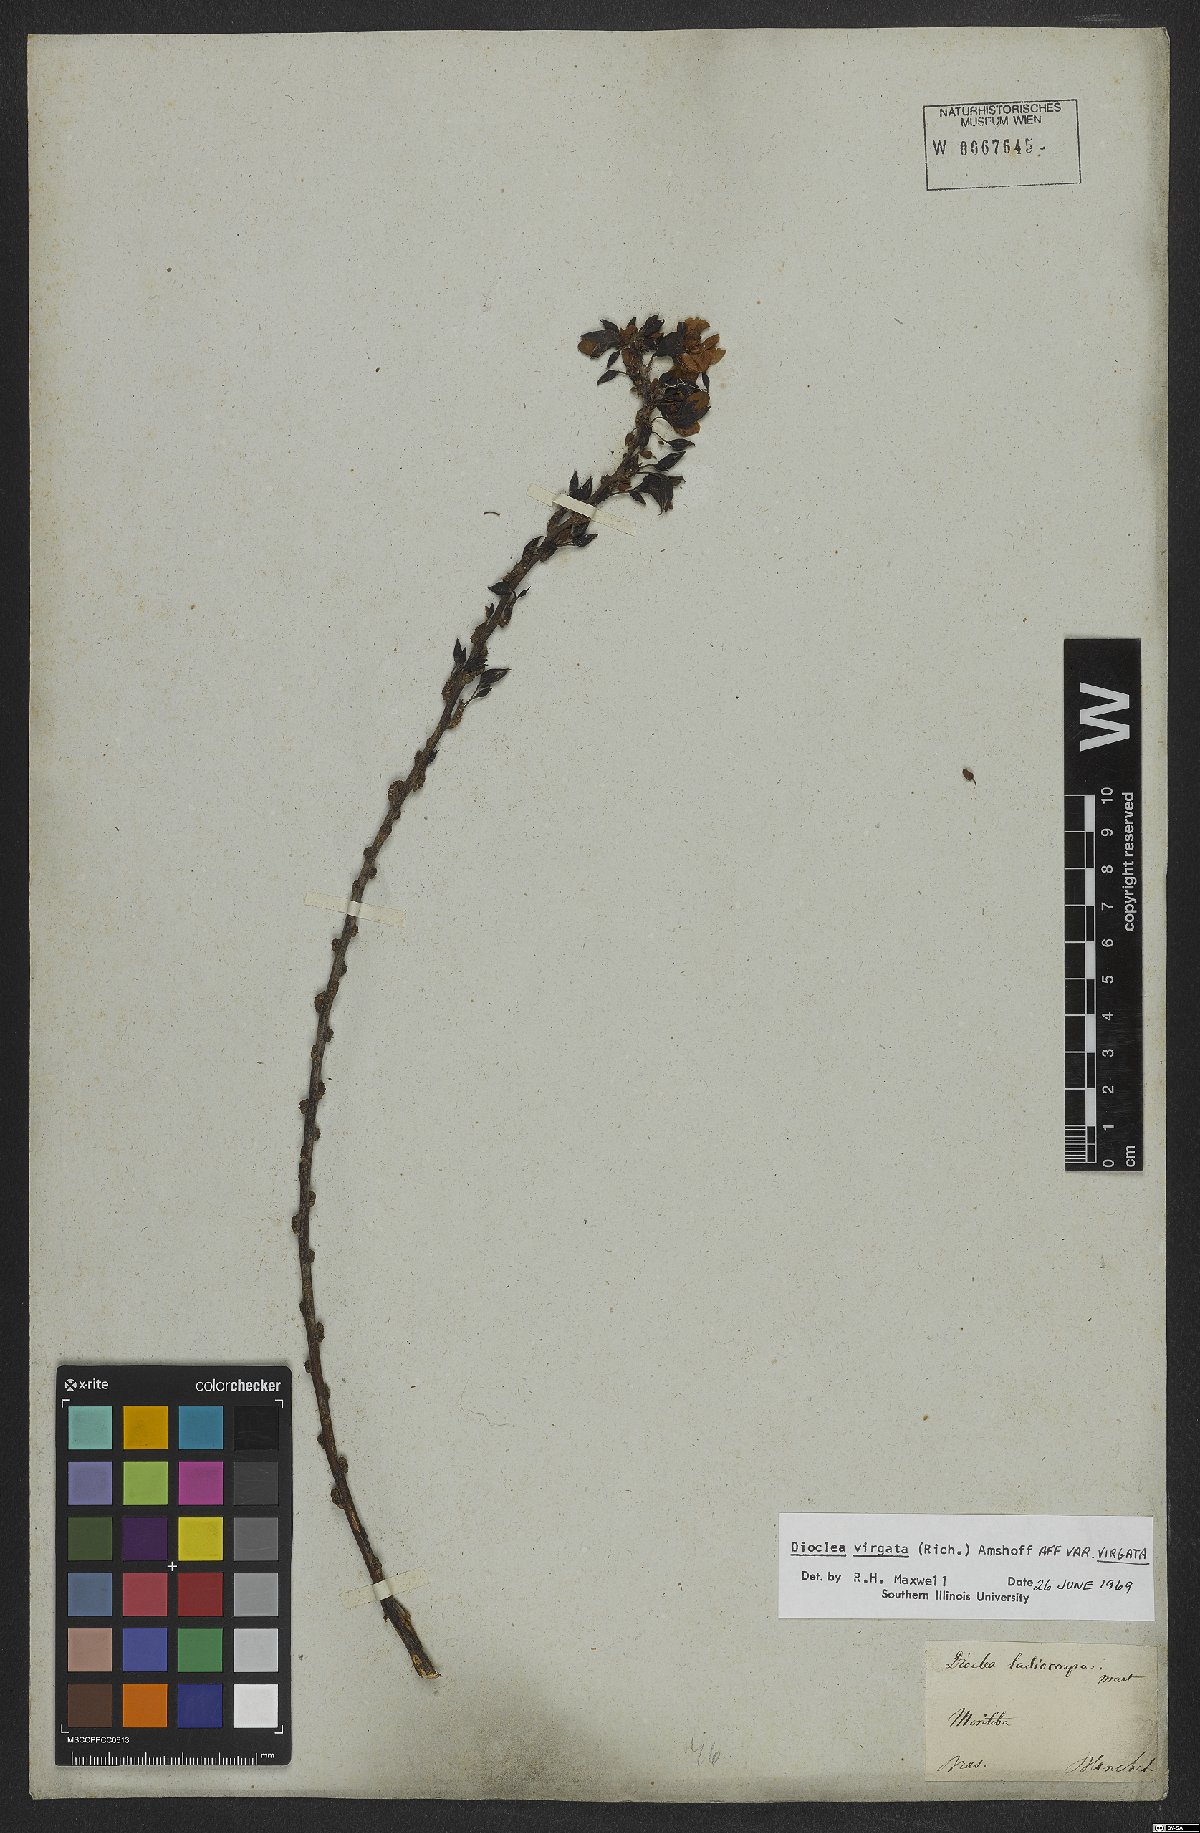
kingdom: Plantae
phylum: Tracheophyta
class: Magnoliopsida
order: Fabales
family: Fabaceae
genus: Dioclea
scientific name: Dioclea virgata
